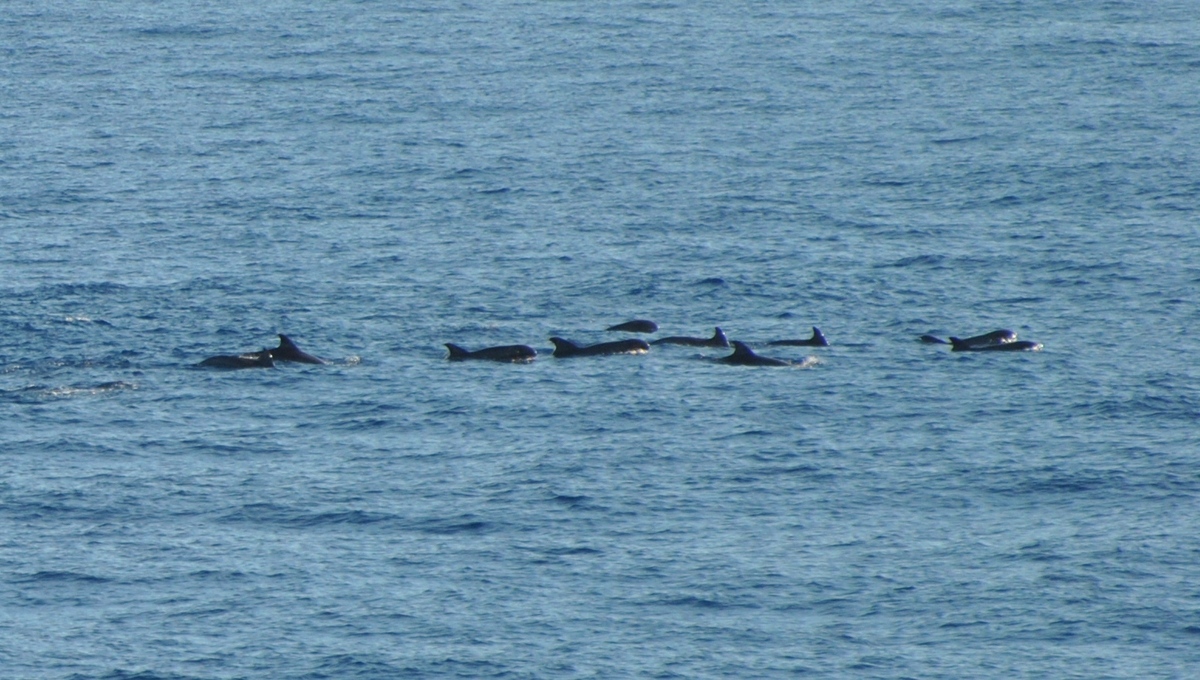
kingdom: Animalia
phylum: Chordata
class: Mammalia
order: Cetacea
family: Delphinidae
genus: Peponocephala
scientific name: Peponocephala electra
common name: Melon-headed Whale
